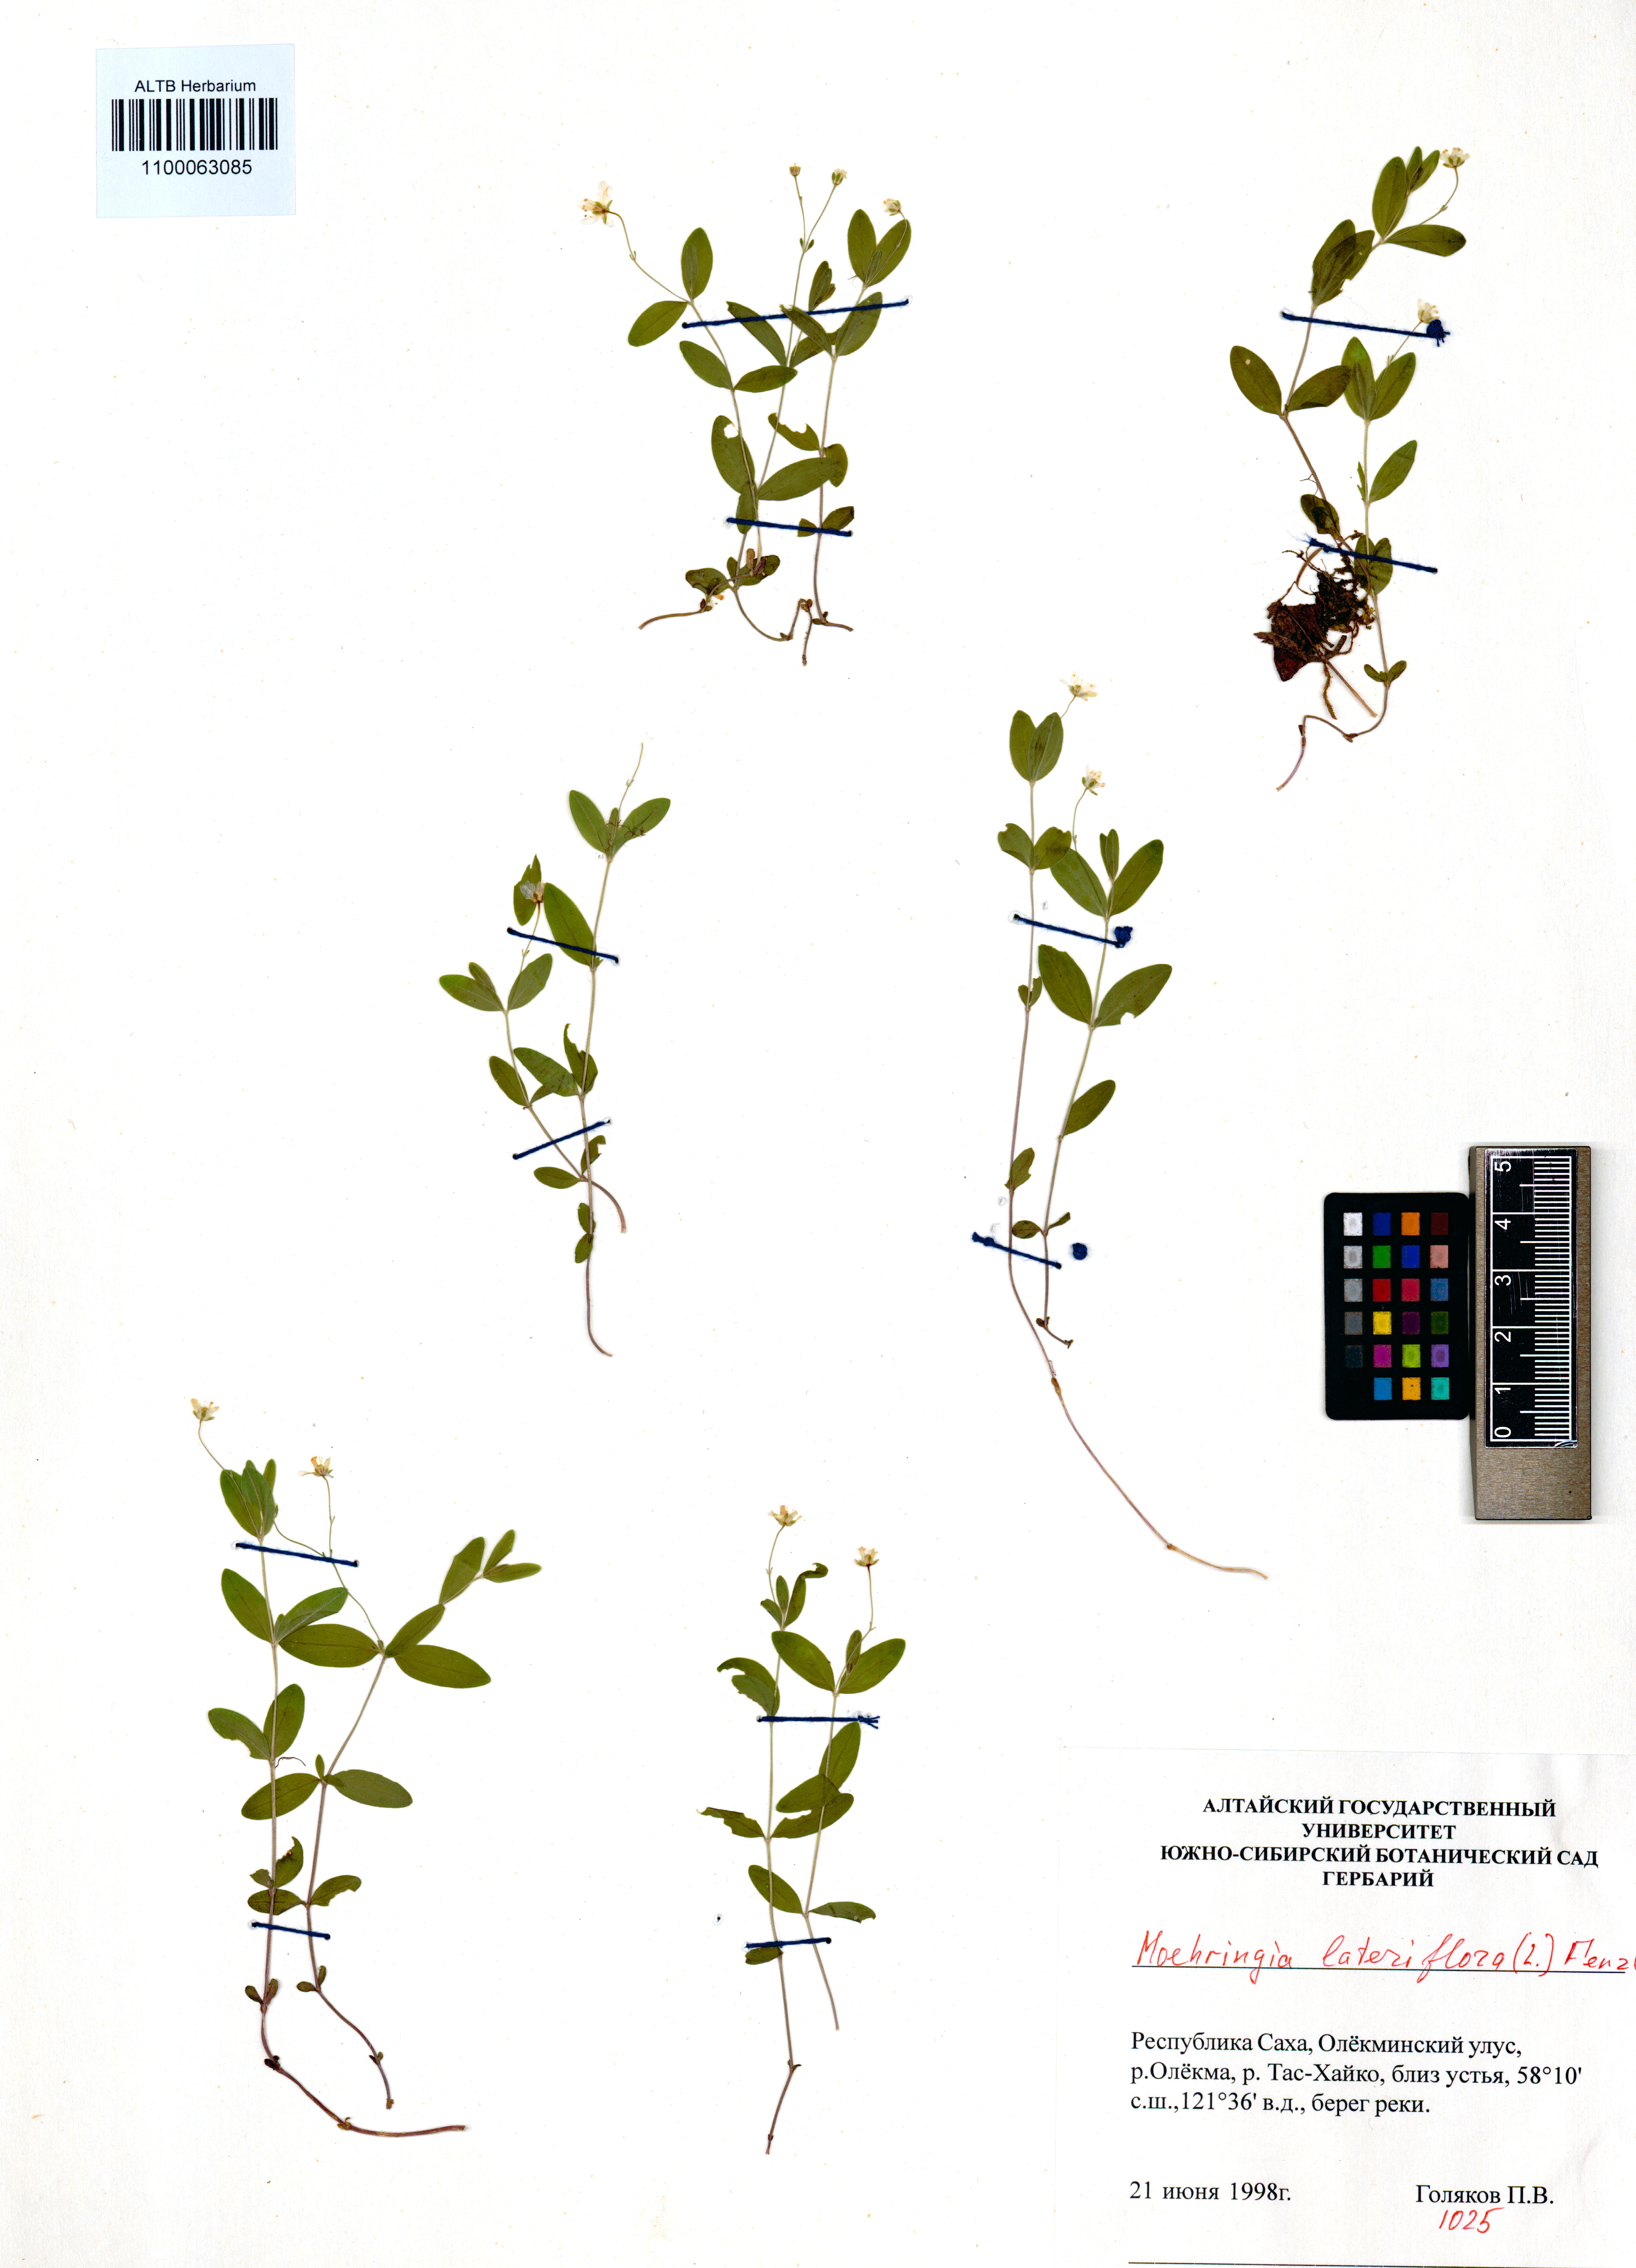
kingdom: Plantae
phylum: Tracheophyta
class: Magnoliopsida
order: Caryophyllales
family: Caryophyllaceae
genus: Moehringia
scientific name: Moehringia lateriflora
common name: Blunt-leaved sandwort
